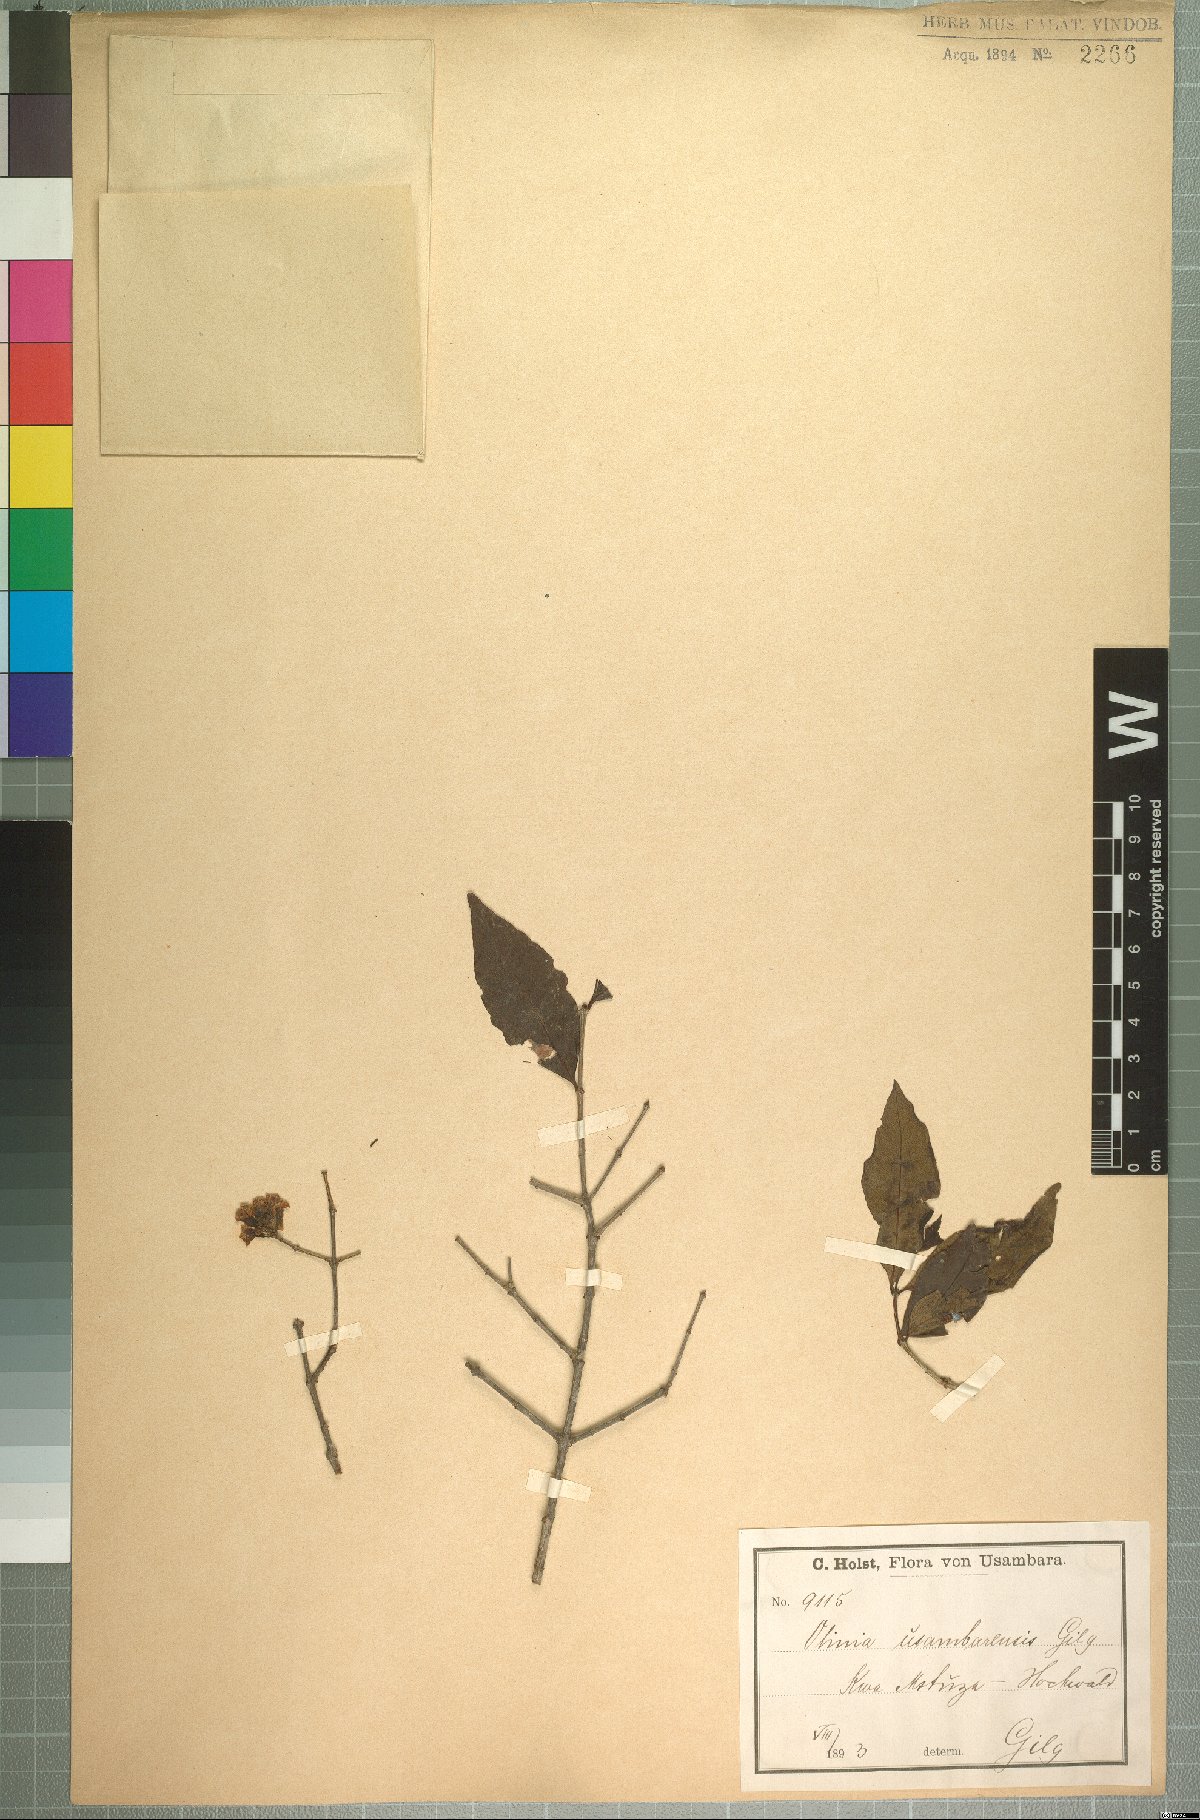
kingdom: Plantae
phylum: Tracheophyta
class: Magnoliopsida
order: Myrtales
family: Penaeaceae
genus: Olinia
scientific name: Olinia rochetiana
